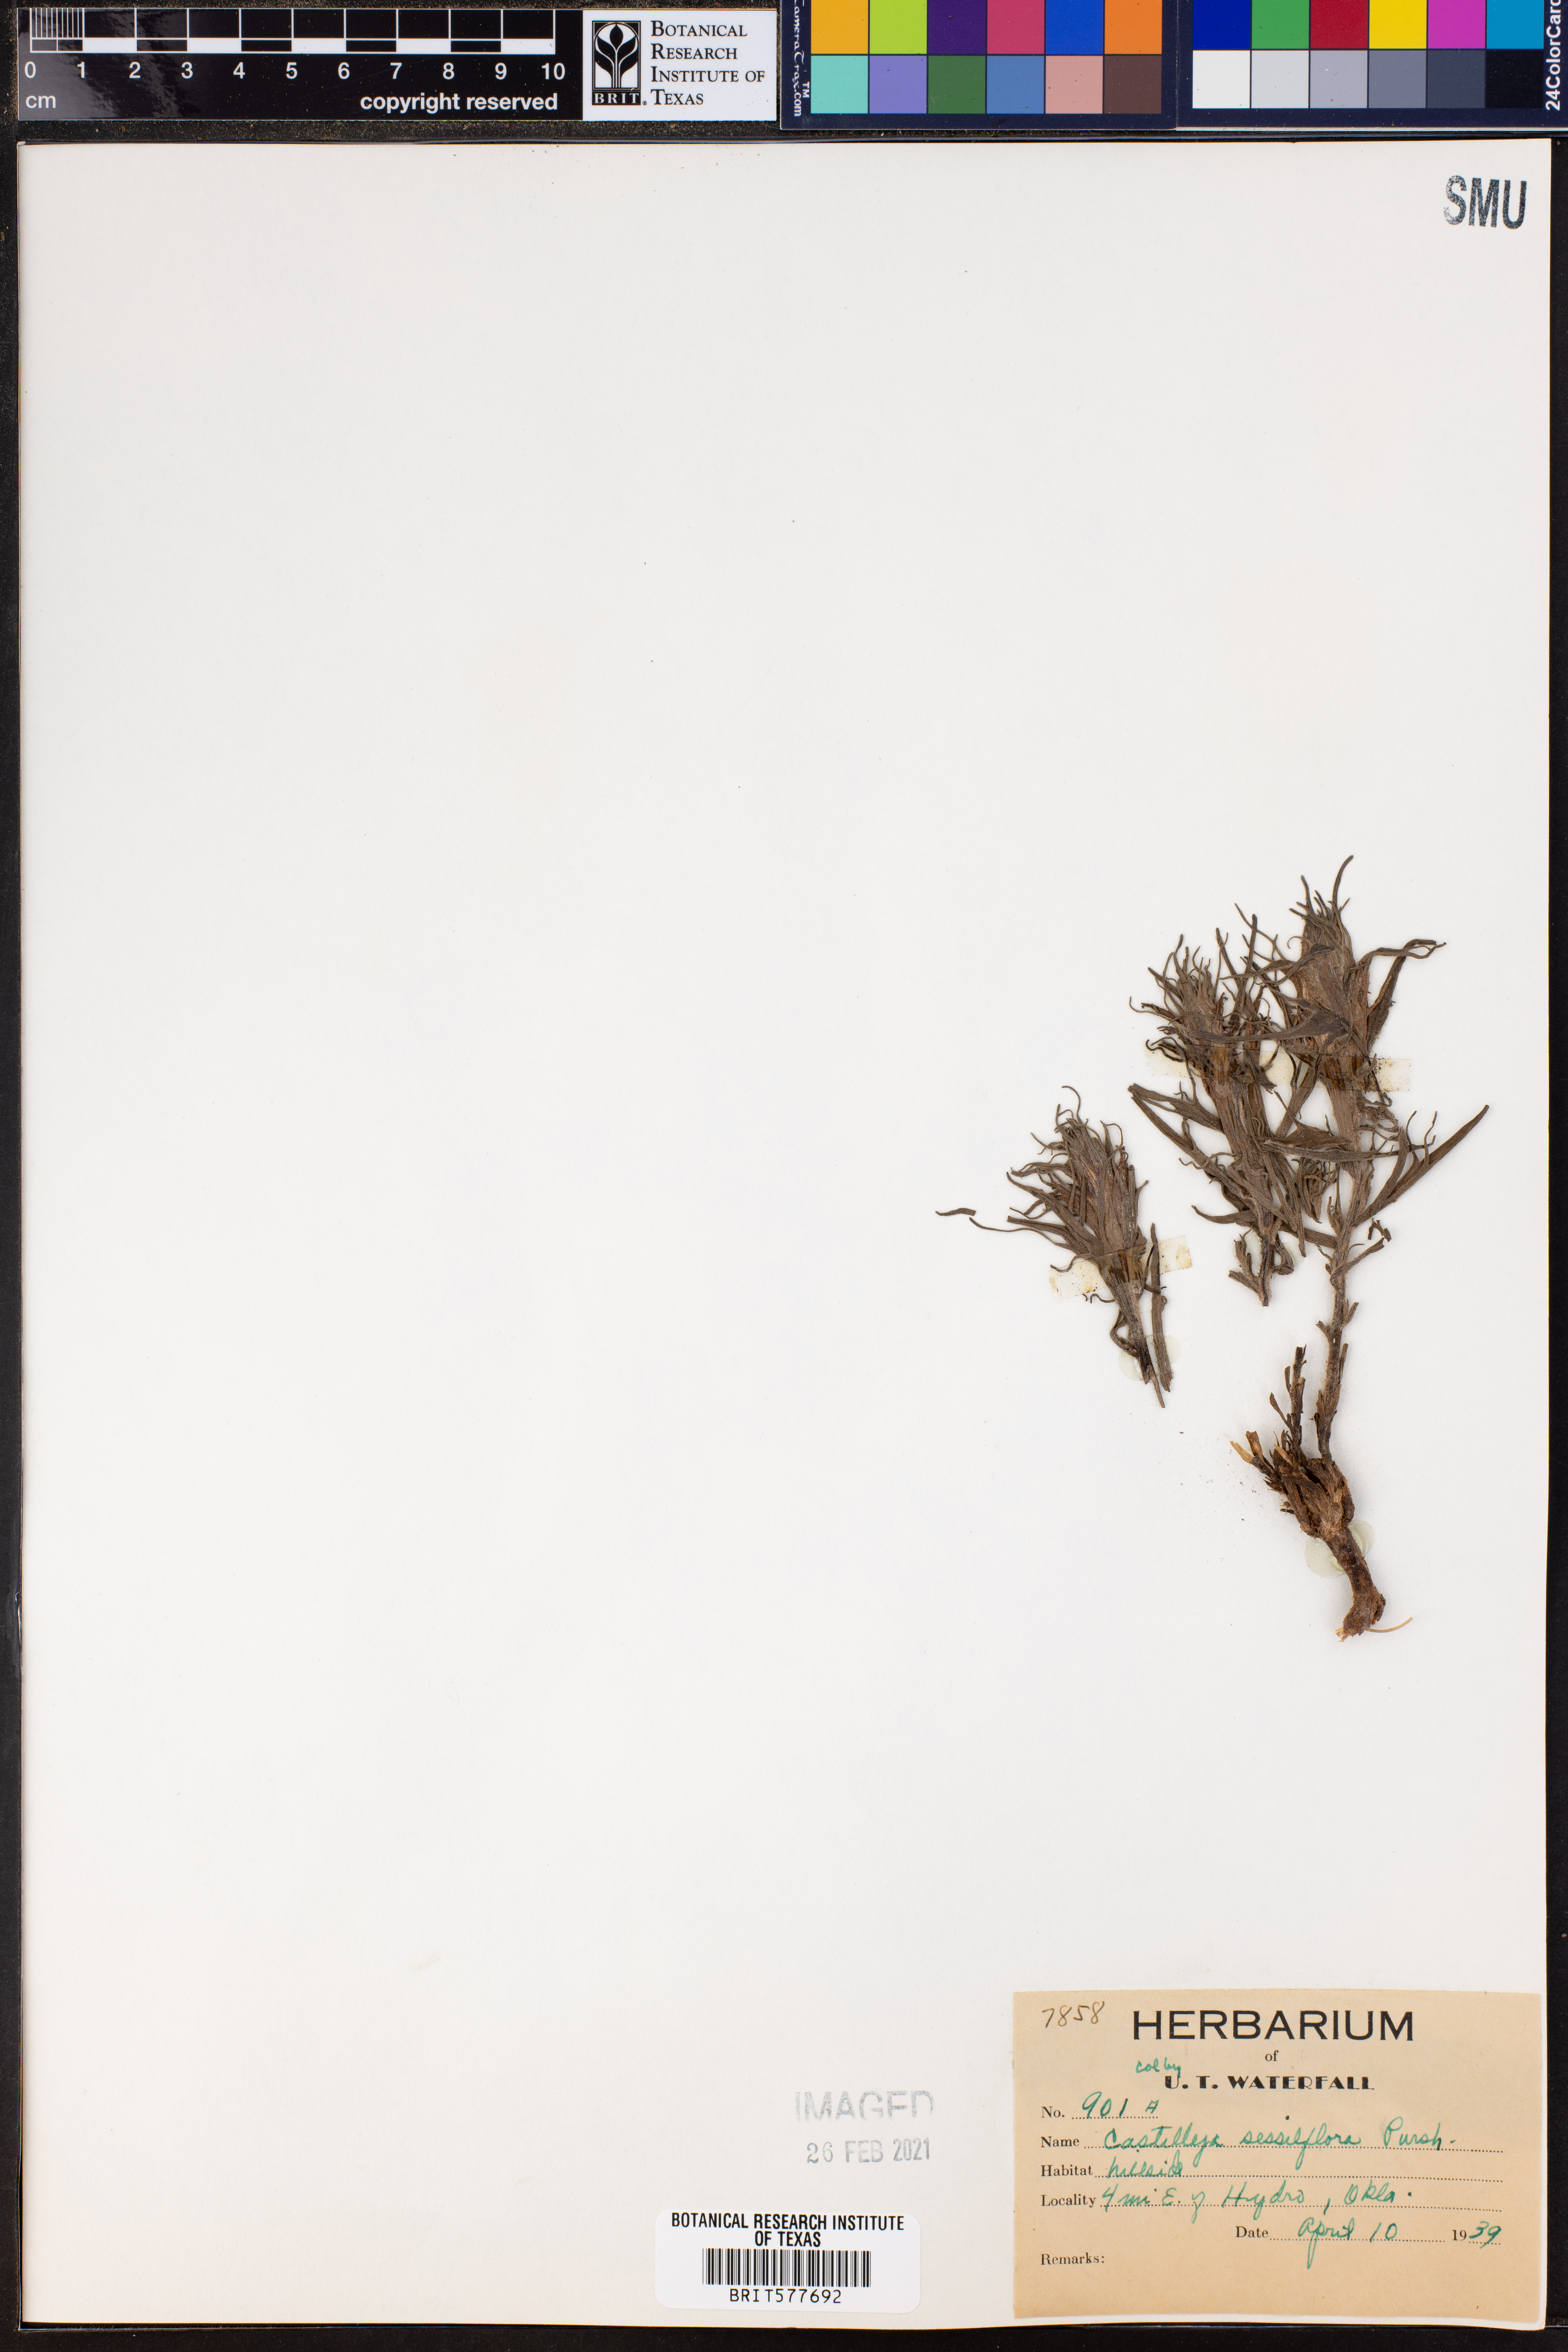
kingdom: Plantae
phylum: Tracheophyta
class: Magnoliopsida
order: Lamiales
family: Orobanchaceae
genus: Castilleja
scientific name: Castilleja sessiliflora
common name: Downy paintbrush
